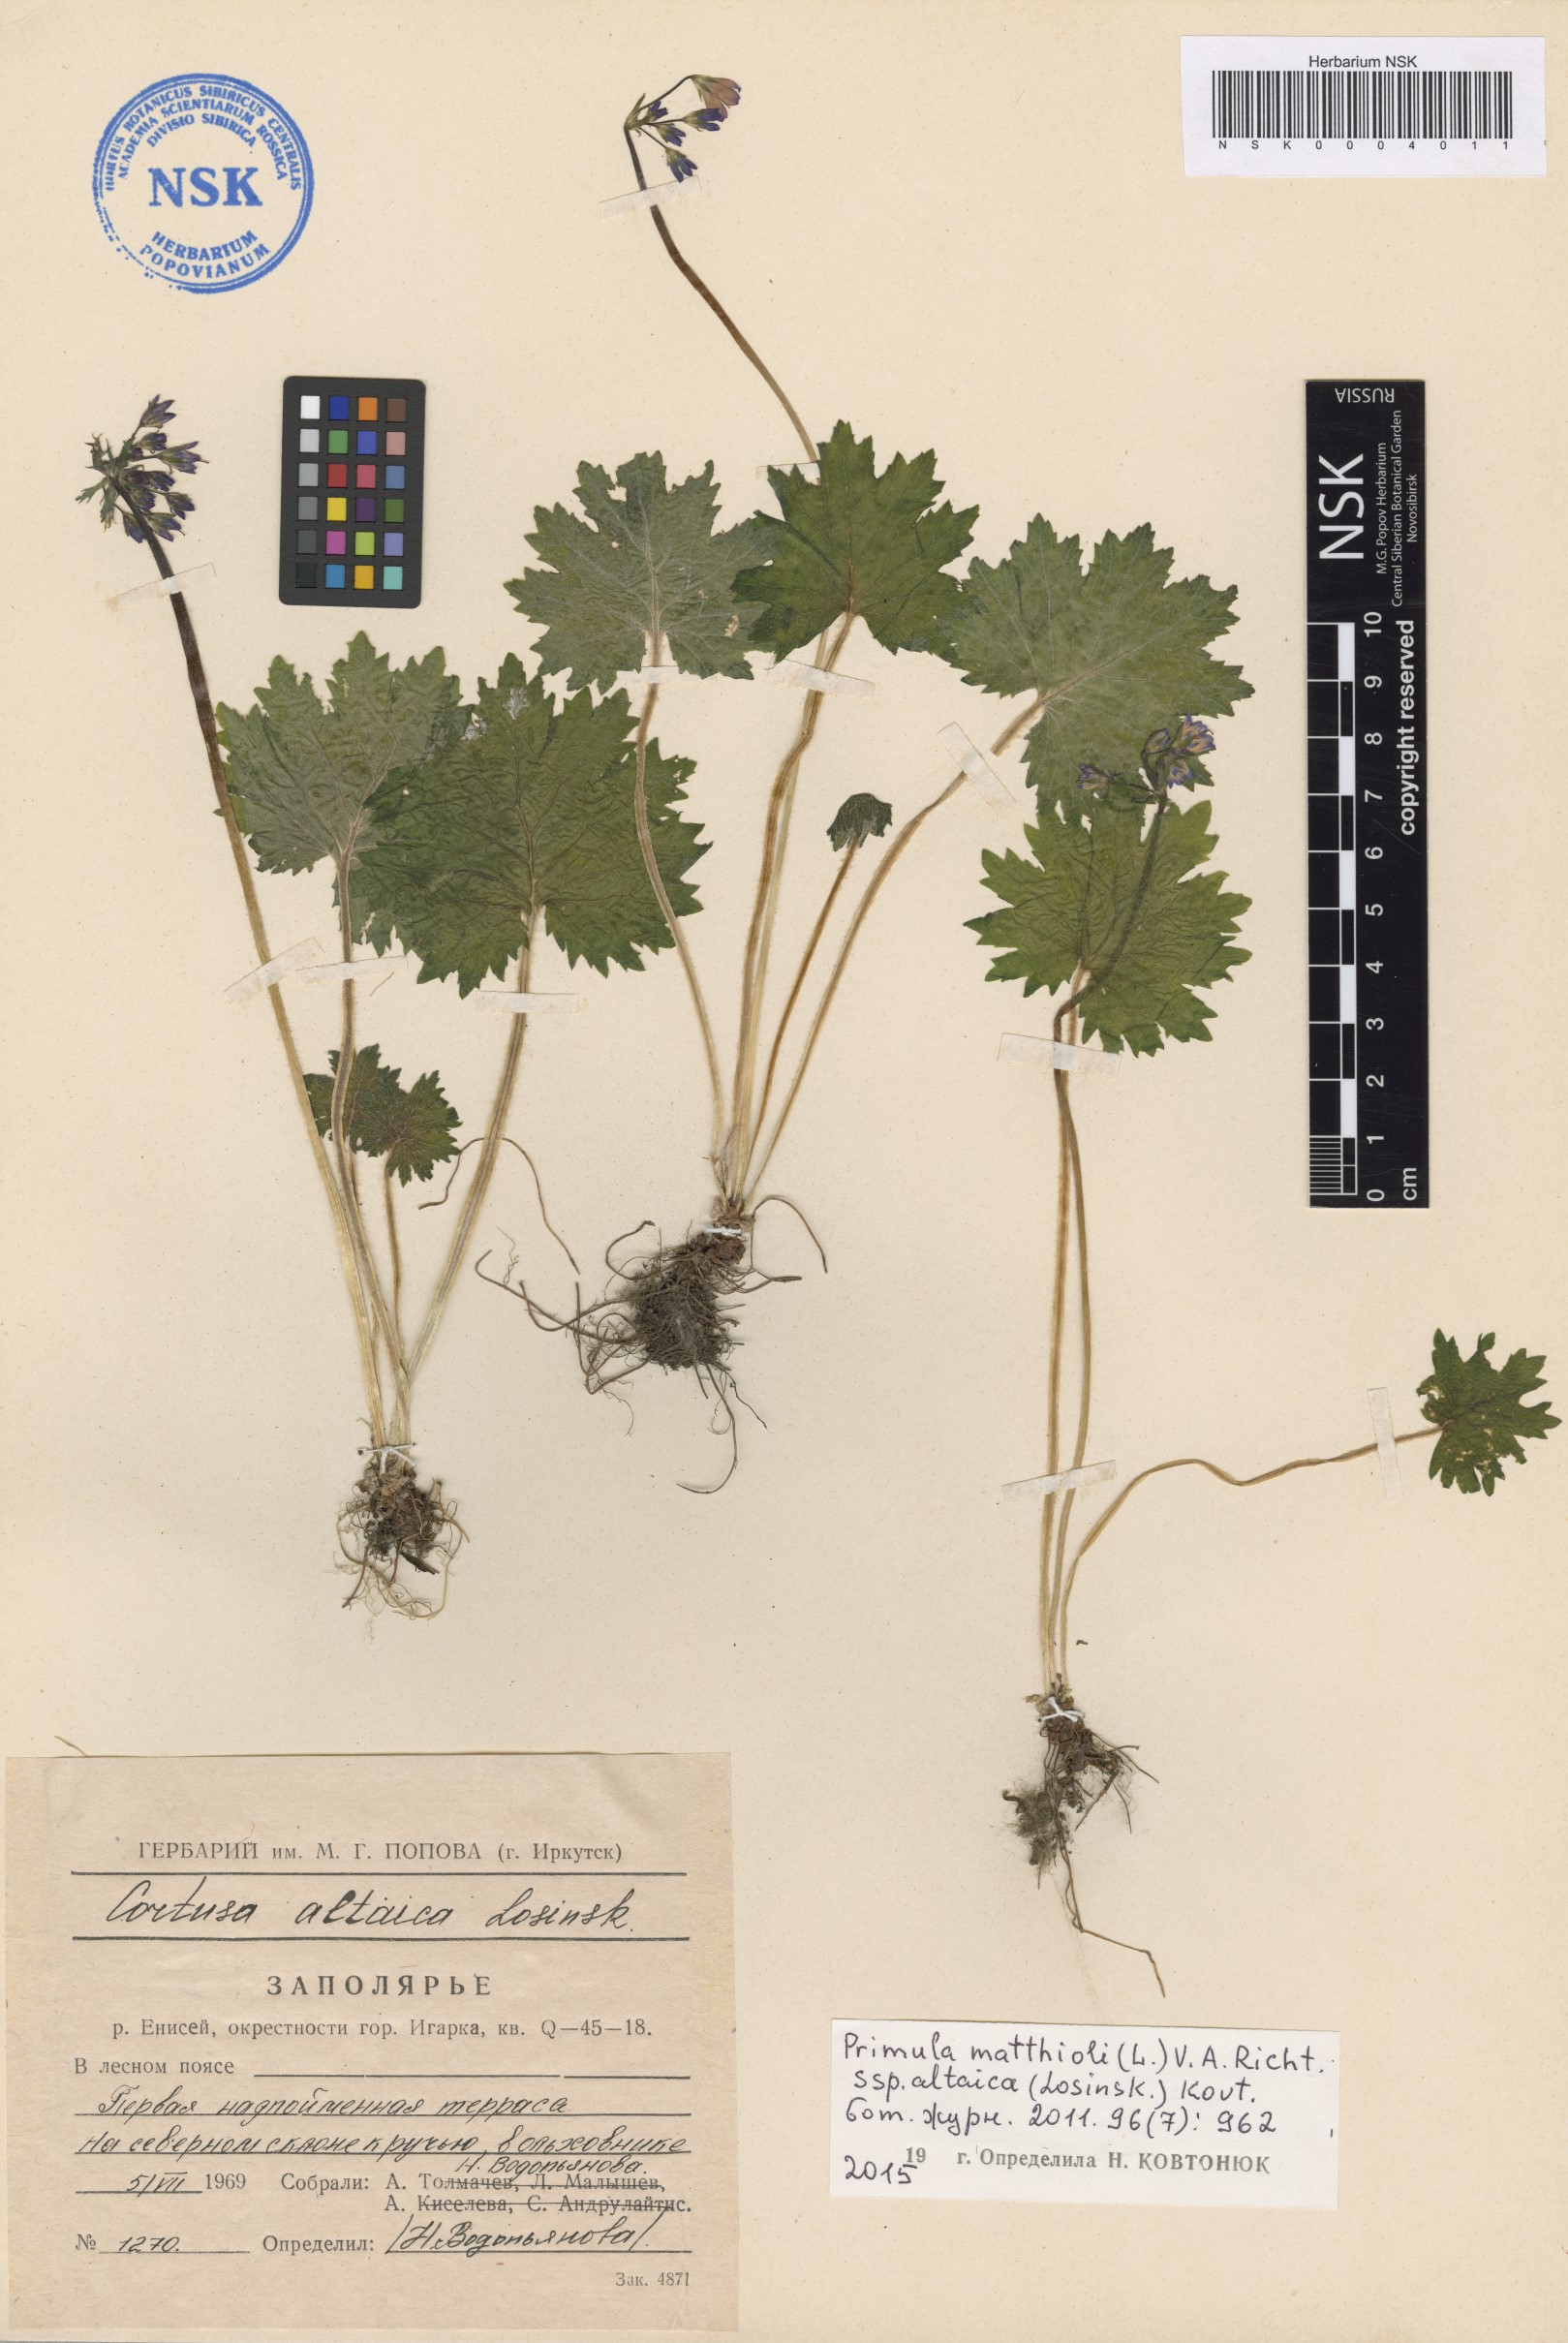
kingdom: Plantae
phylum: Tracheophyta
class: Magnoliopsida
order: Ericales
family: Primulaceae
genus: Primula
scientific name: Primula matthioli
